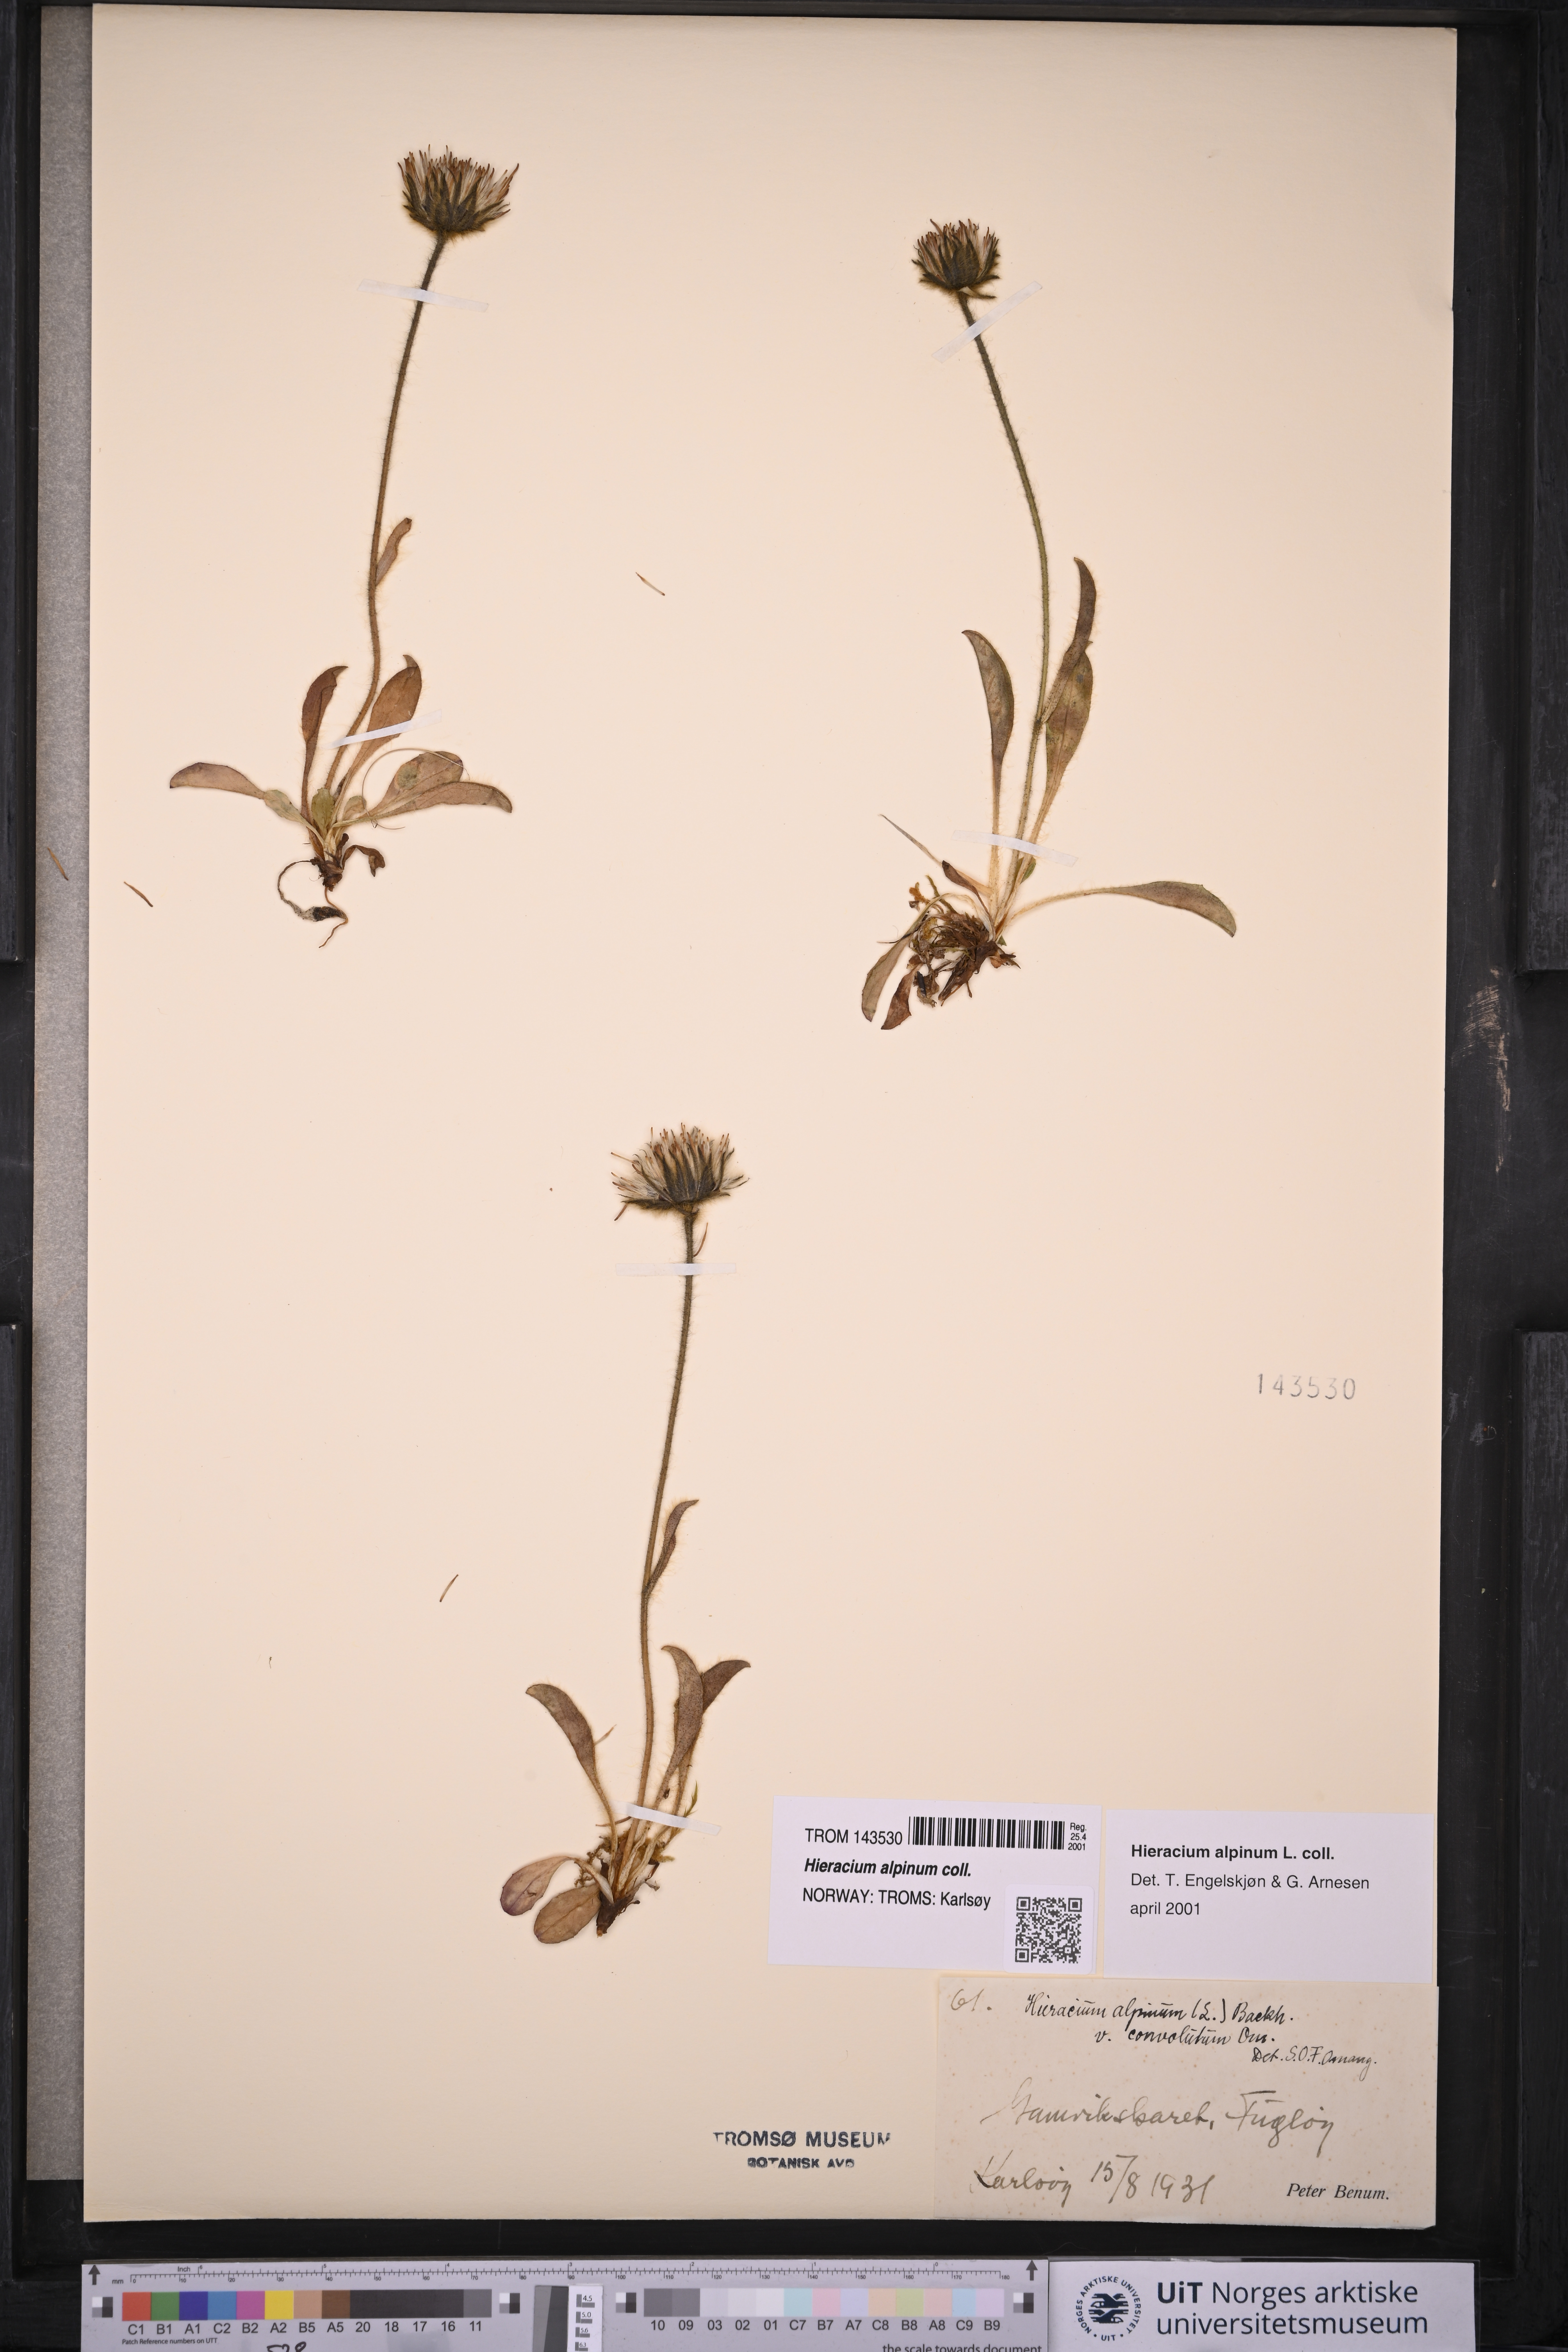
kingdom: Plantae
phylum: Tracheophyta
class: Magnoliopsida
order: Asterales
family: Asteraceae
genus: Hieracium
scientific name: Hieracium alpinum
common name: Alpine hawkweed
